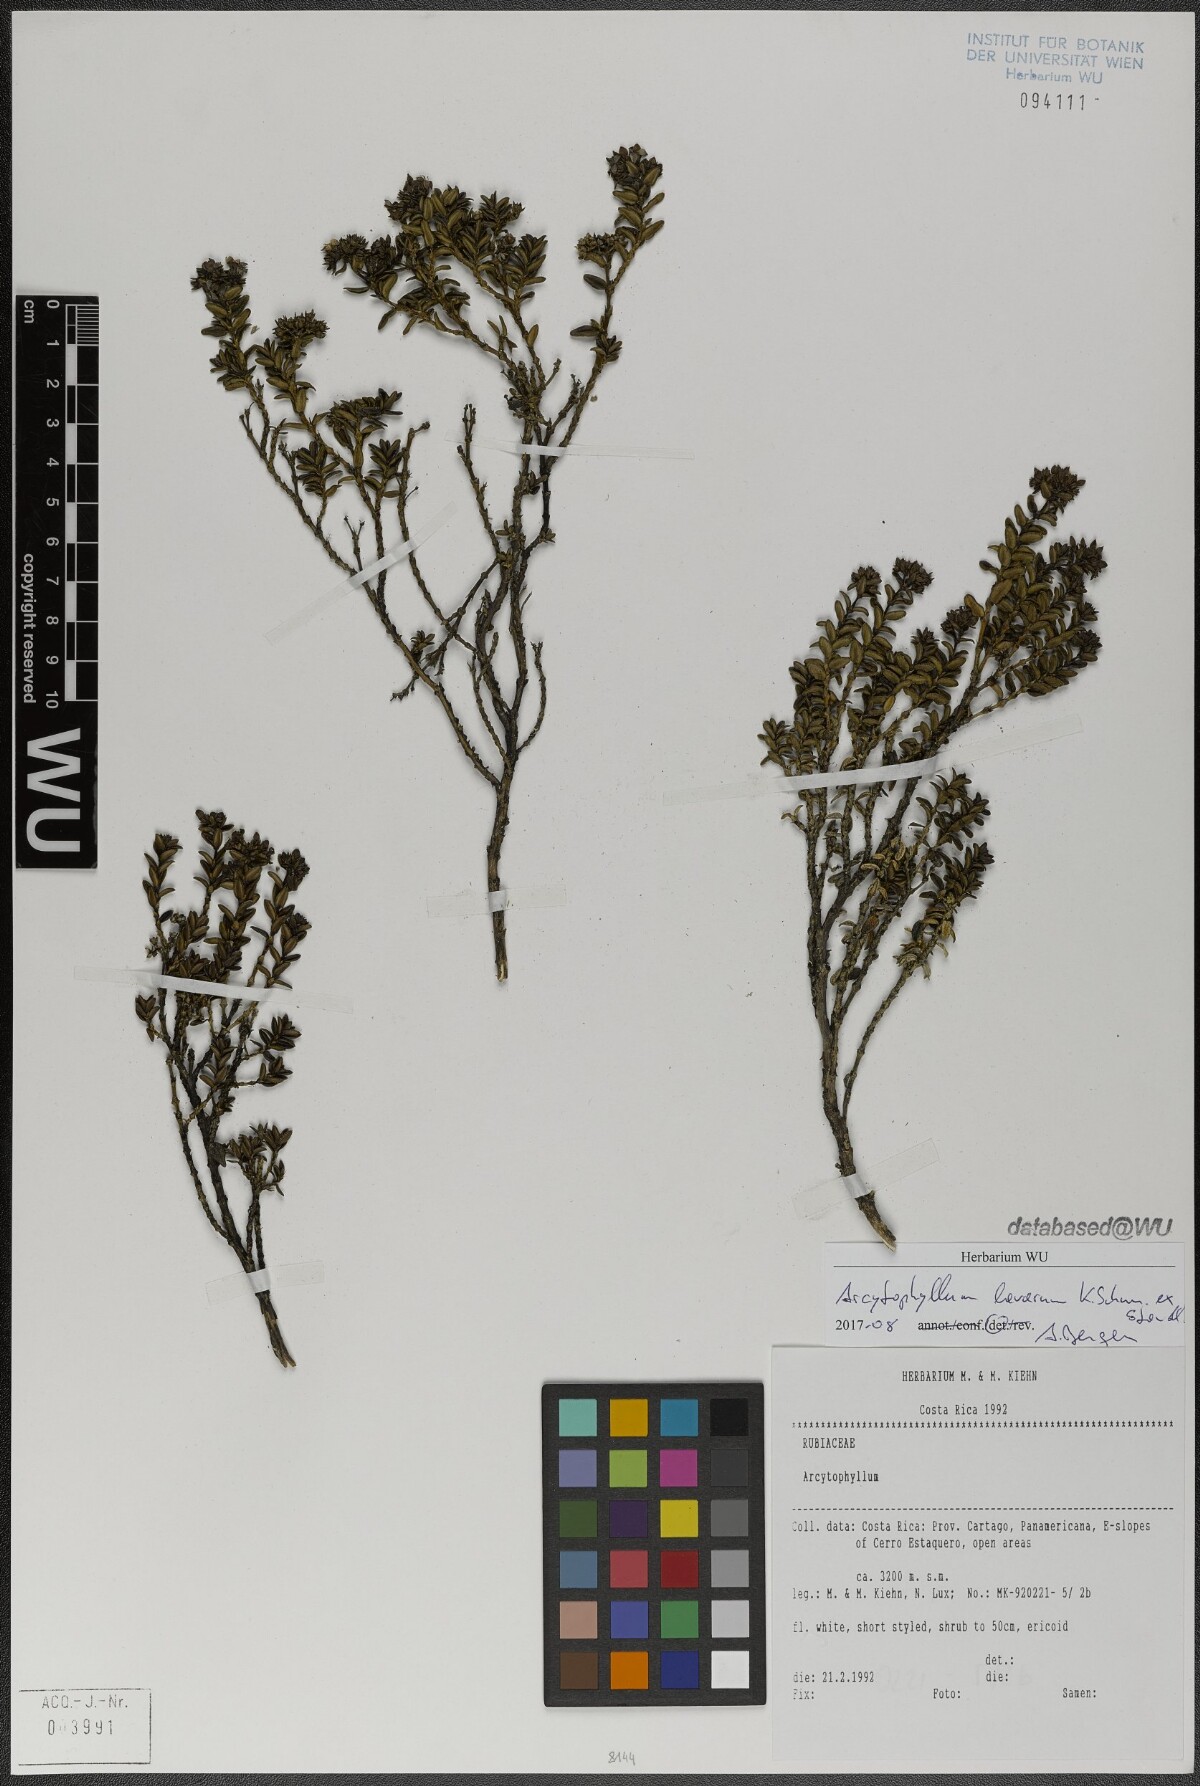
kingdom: Plantae
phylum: Tracheophyta
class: Magnoliopsida
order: Gentianales
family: Rubiaceae
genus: Arcytophyllum
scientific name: Arcytophyllum lavarum
